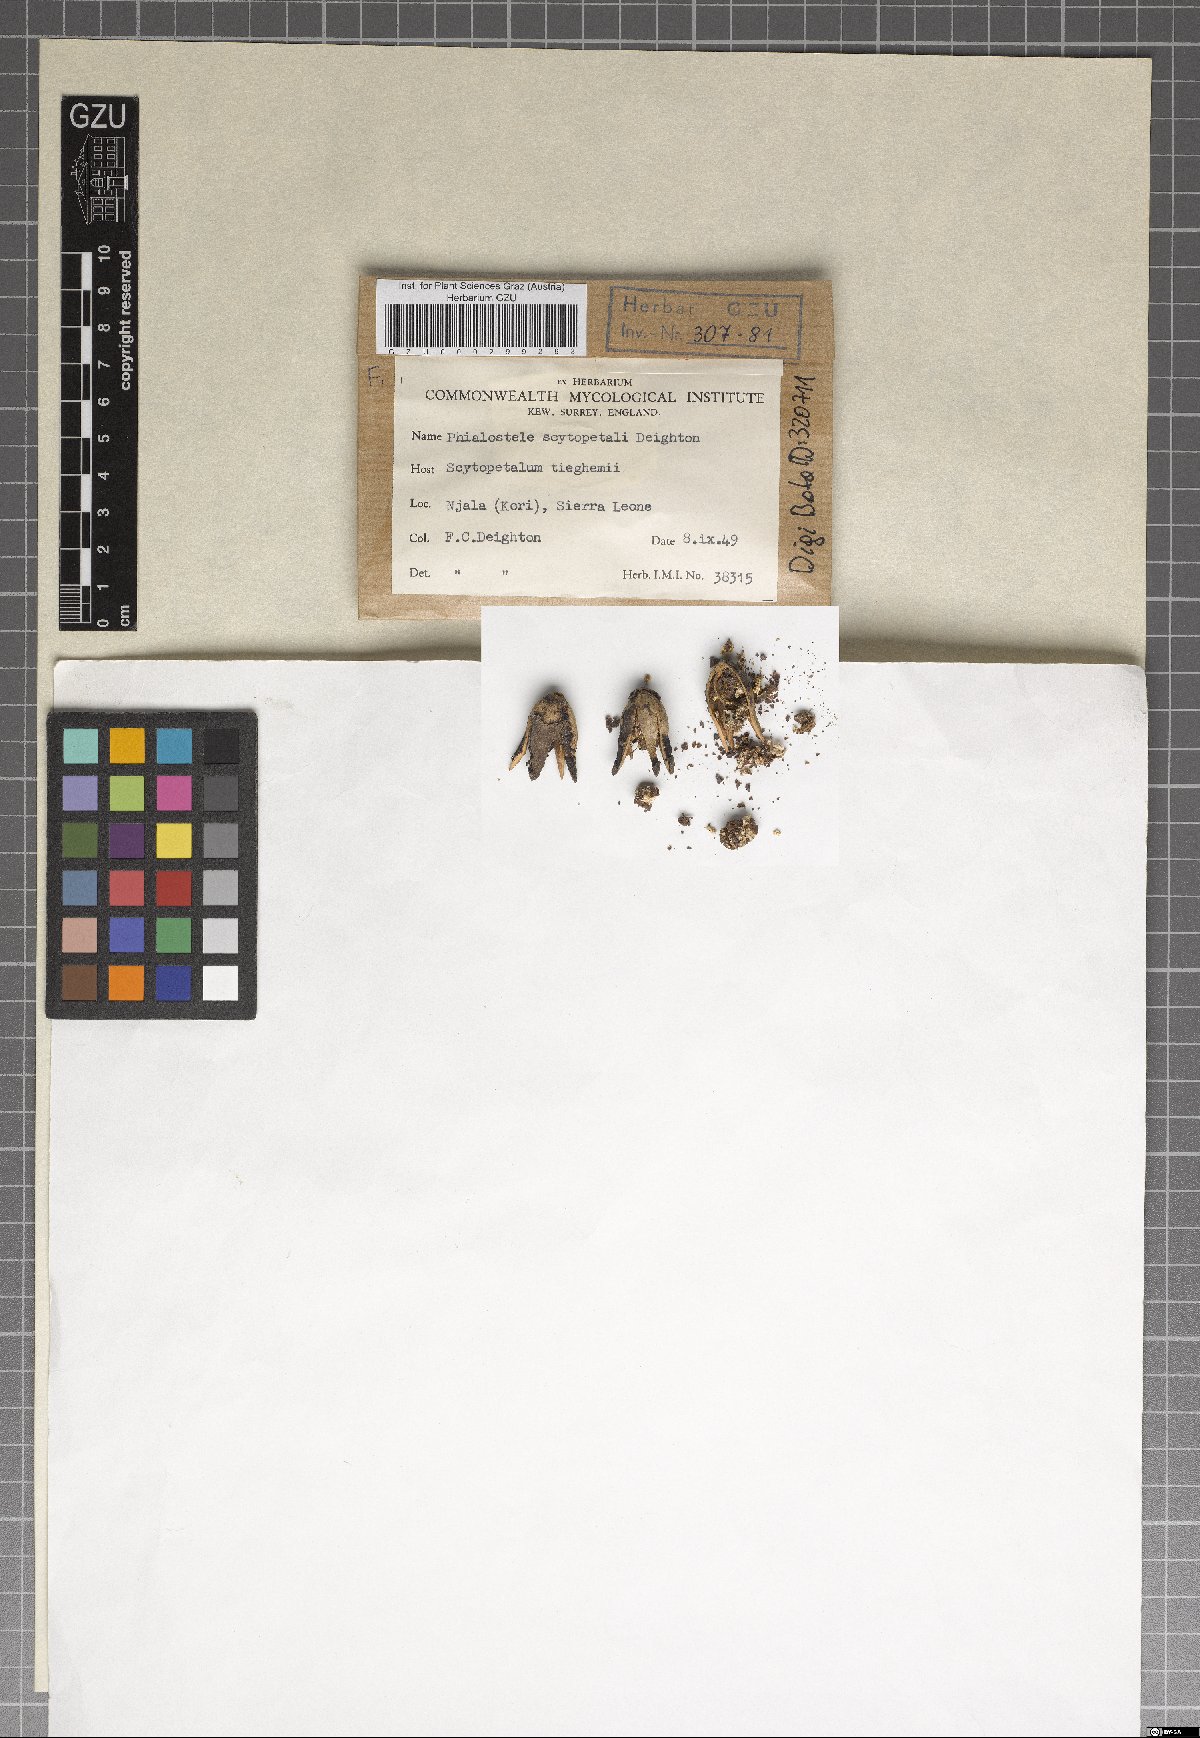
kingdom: Fungi
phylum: Ascomycota
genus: Phialostele
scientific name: Phialostele scytopetali
